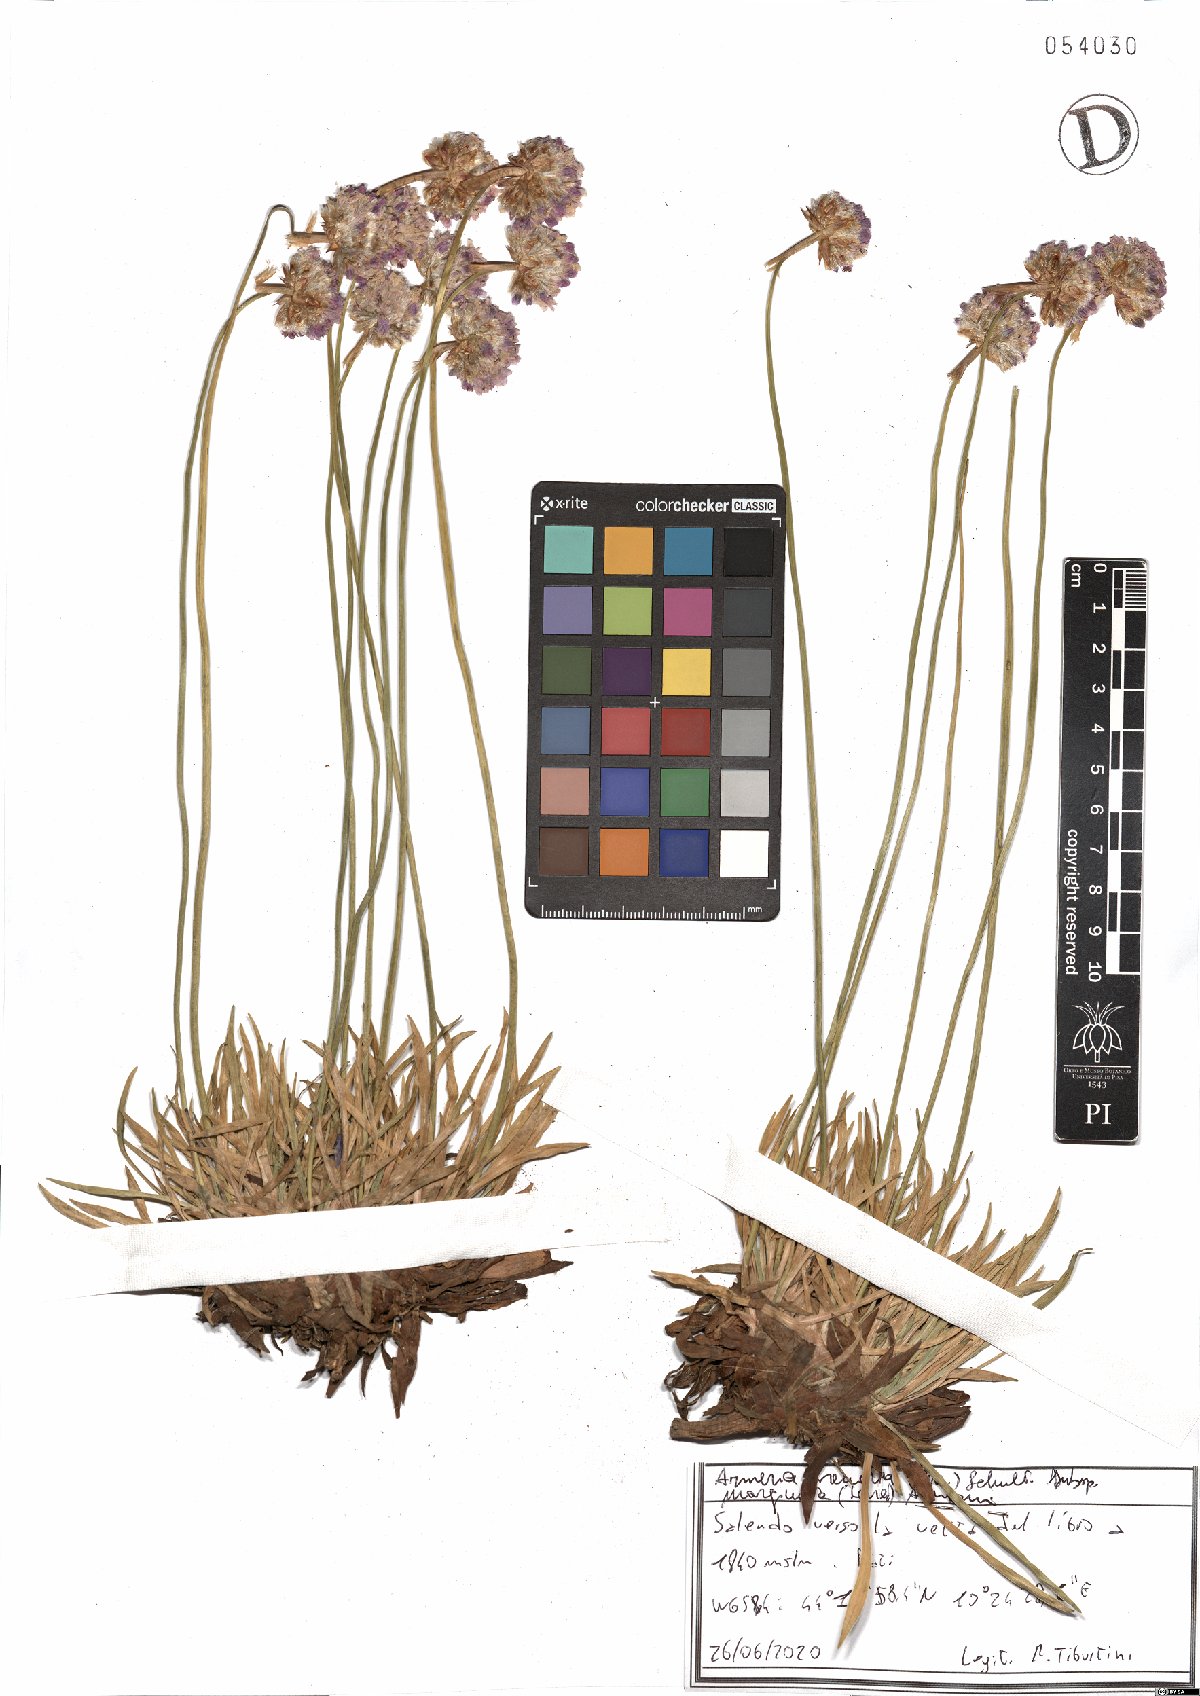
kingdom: Plantae
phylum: Tracheophyta
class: Magnoliopsida
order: Caryophyllales
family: Plumbaginaceae
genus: Armeria
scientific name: Armeria arenaria
